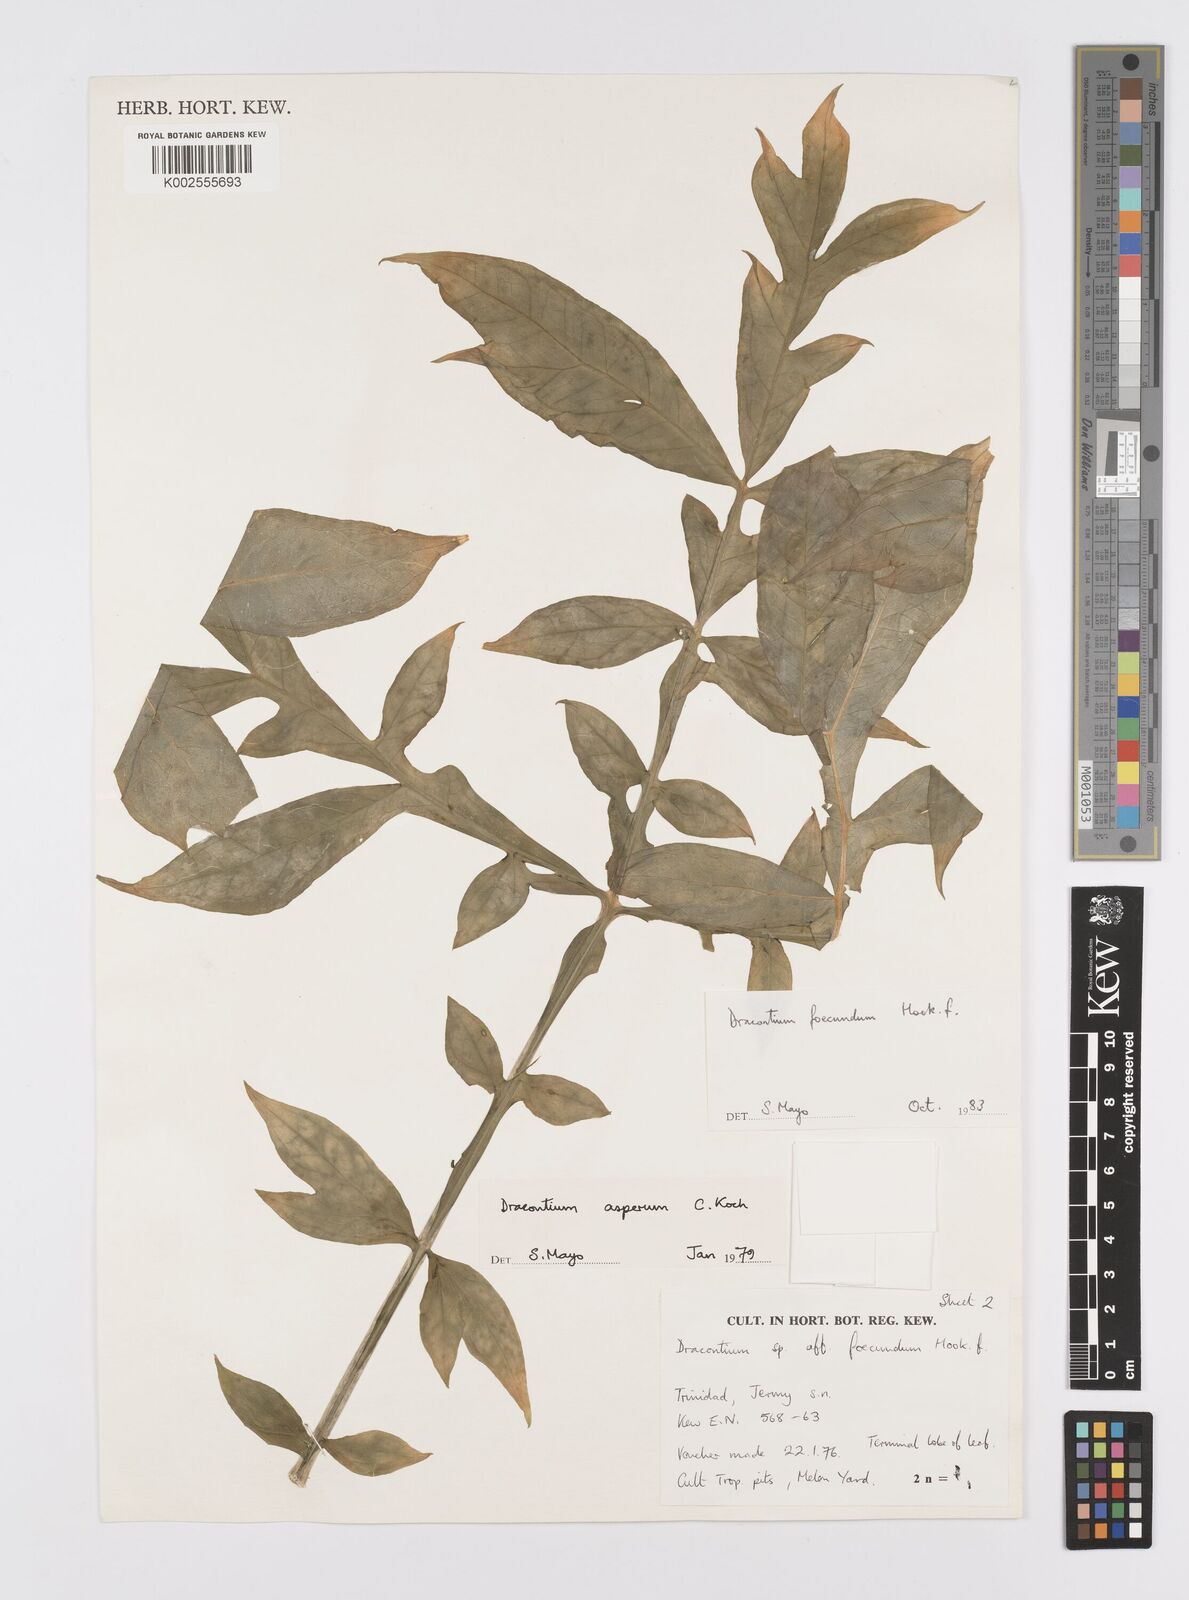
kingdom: Plantae
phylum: Tracheophyta
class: Liliopsida
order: Alismatales
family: Araceae
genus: Dracontium
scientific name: Dracontium asperum
